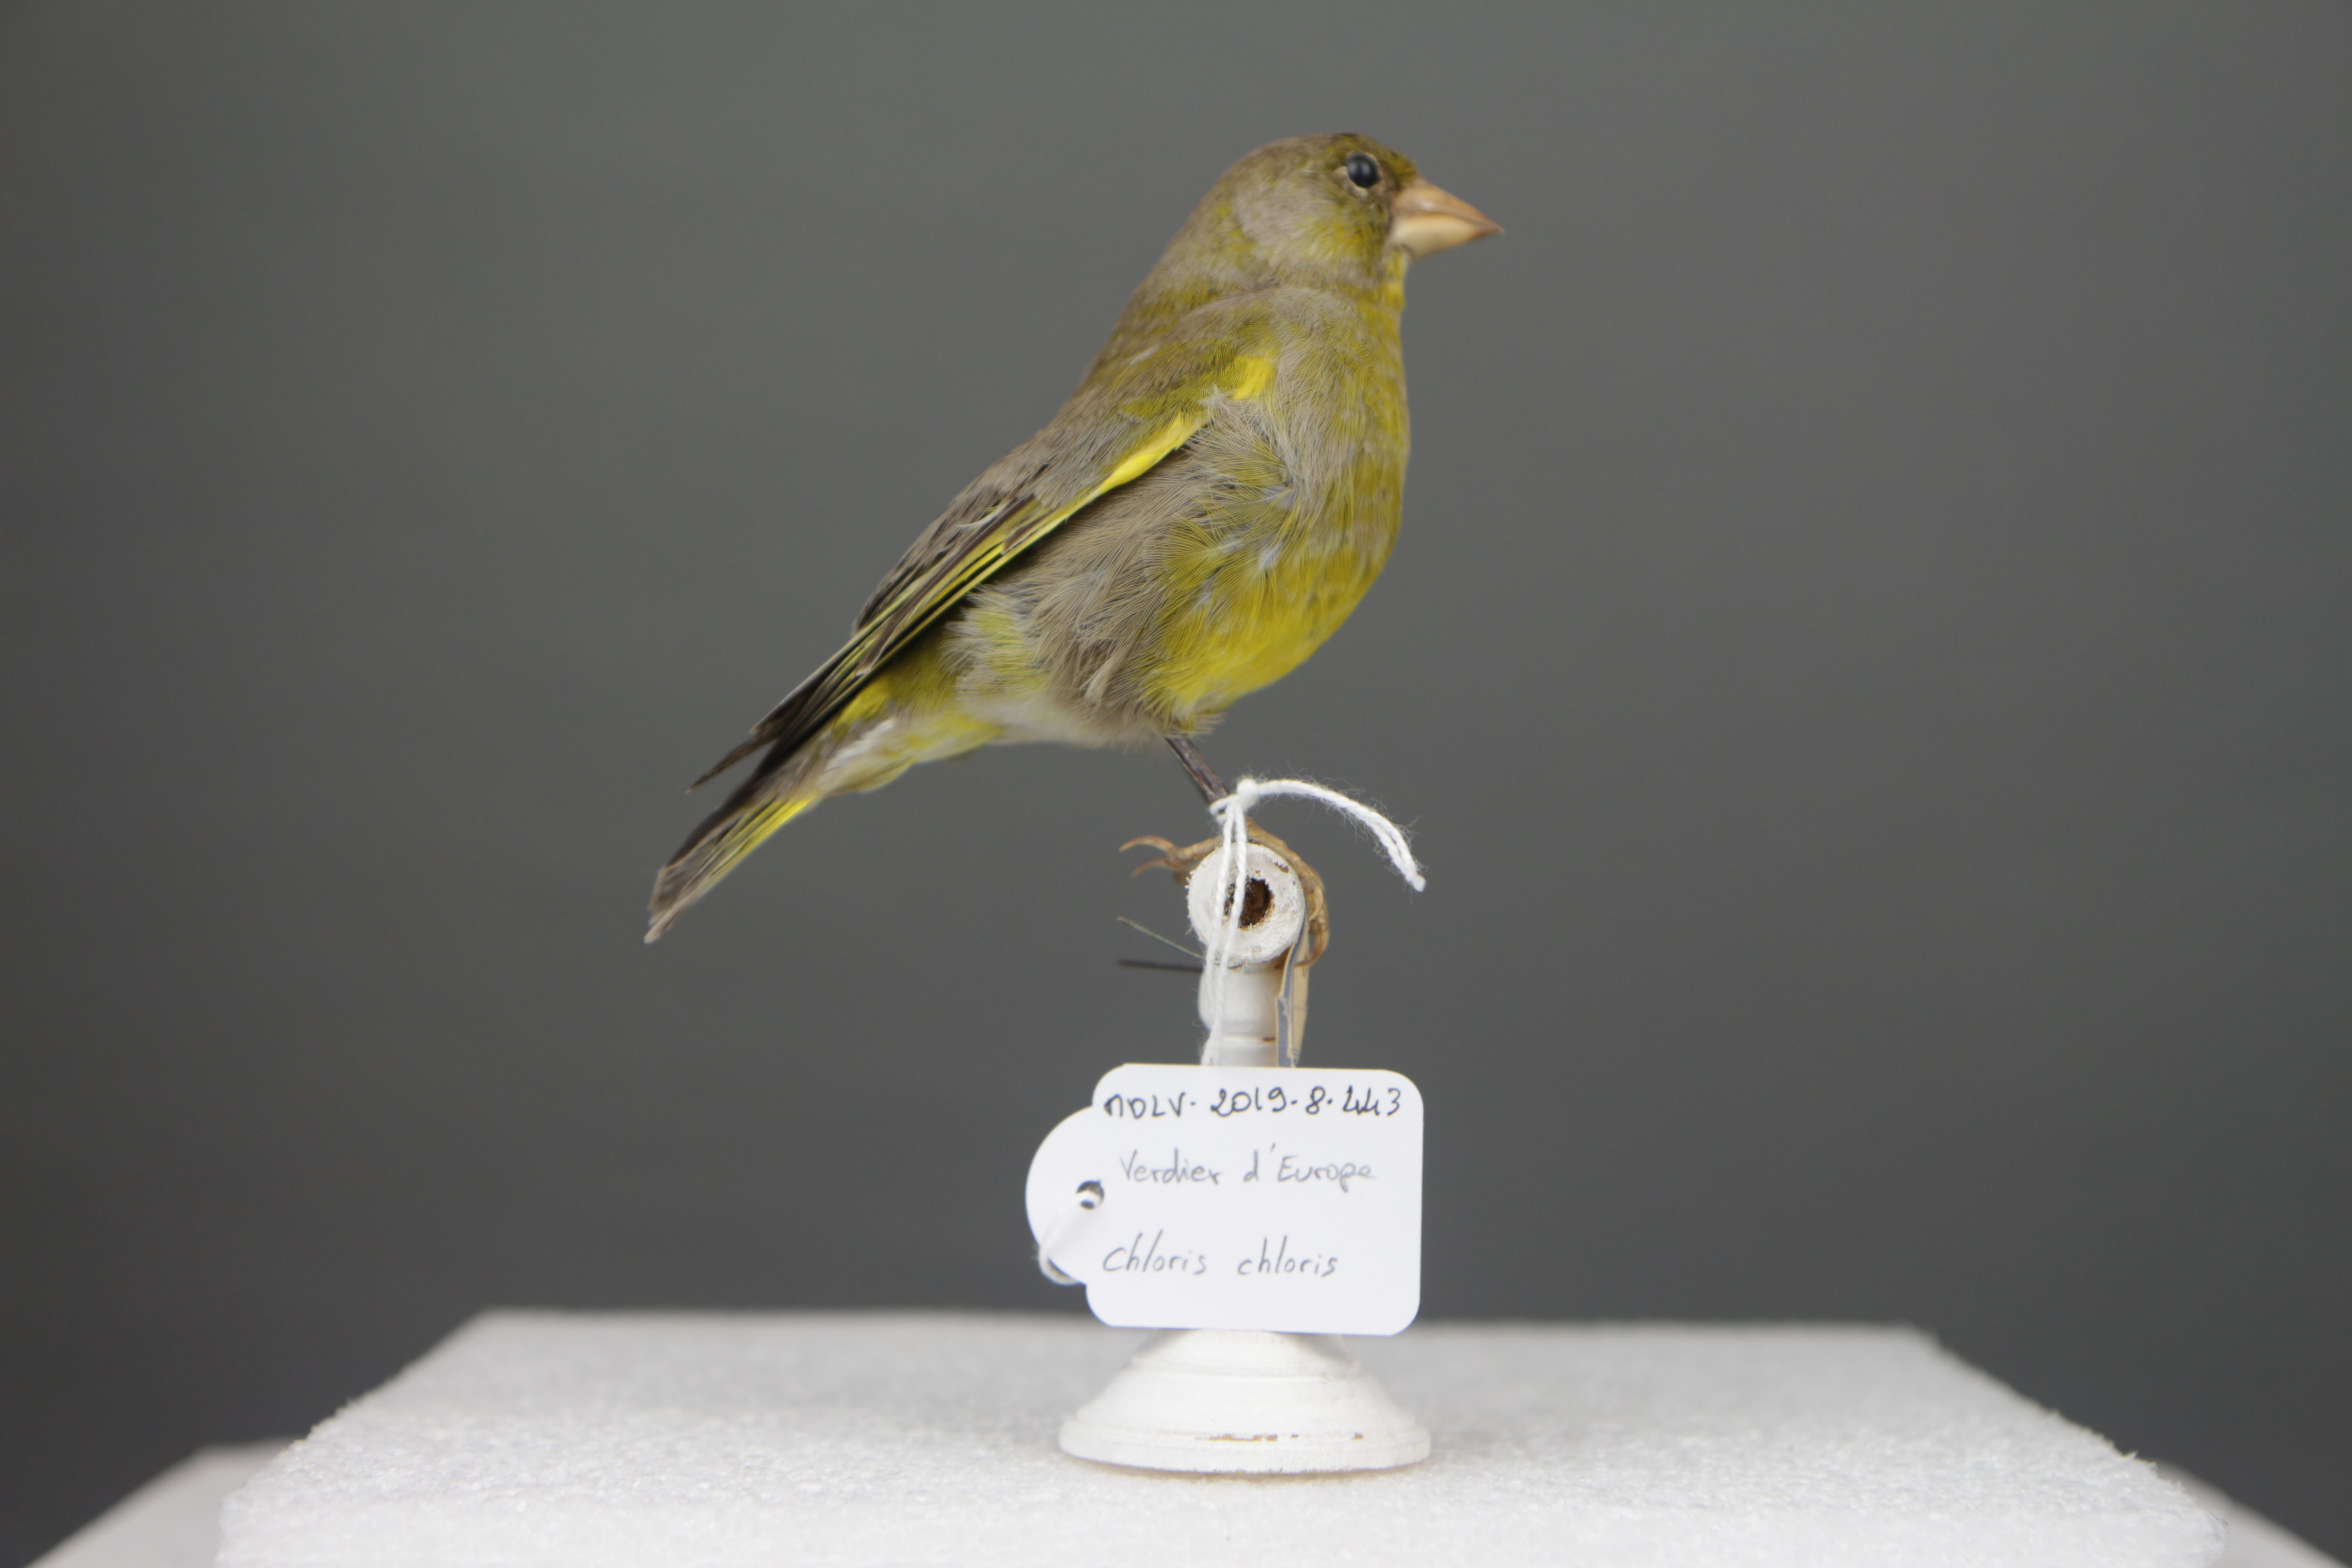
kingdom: Plantae
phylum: Tracheophyta
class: Liliopsida
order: Poales
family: Poaceae
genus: Chloris
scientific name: Chloris chloris
